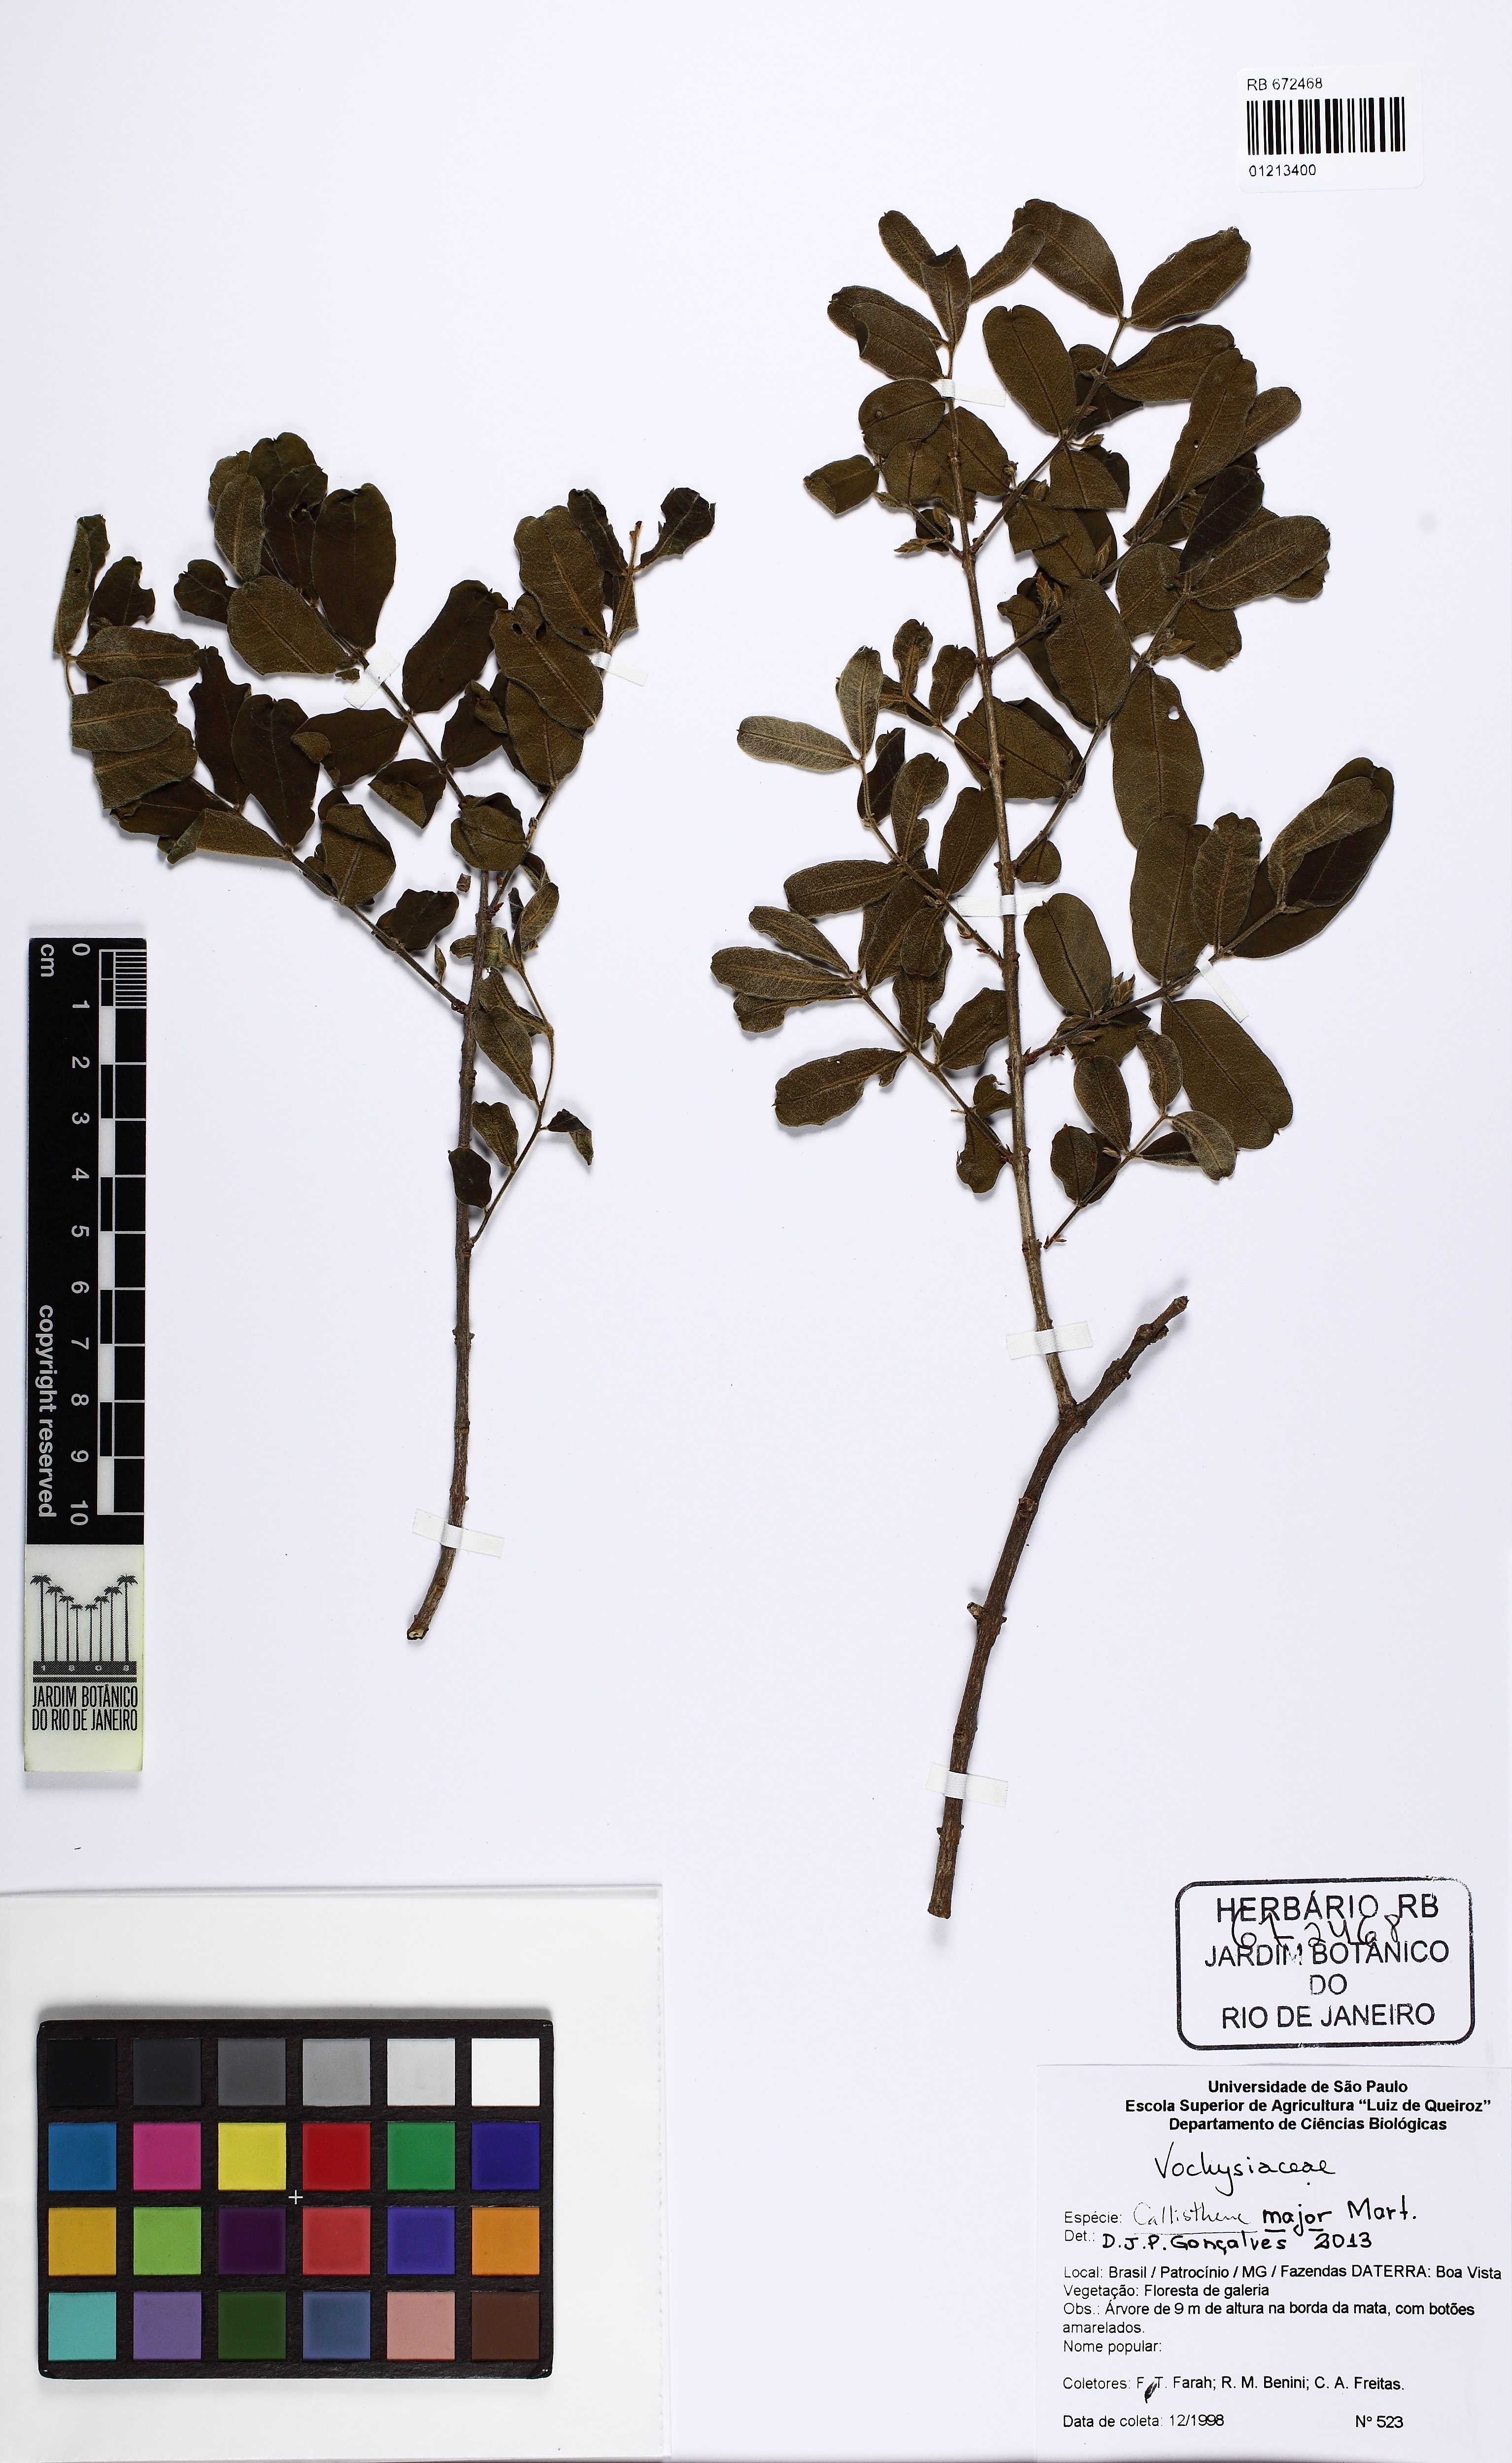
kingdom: Plantae
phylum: Tracheophyta
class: Magnoliopsida
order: Myrtales
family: Vochysiaceae
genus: Callisthene
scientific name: Callisthene major
